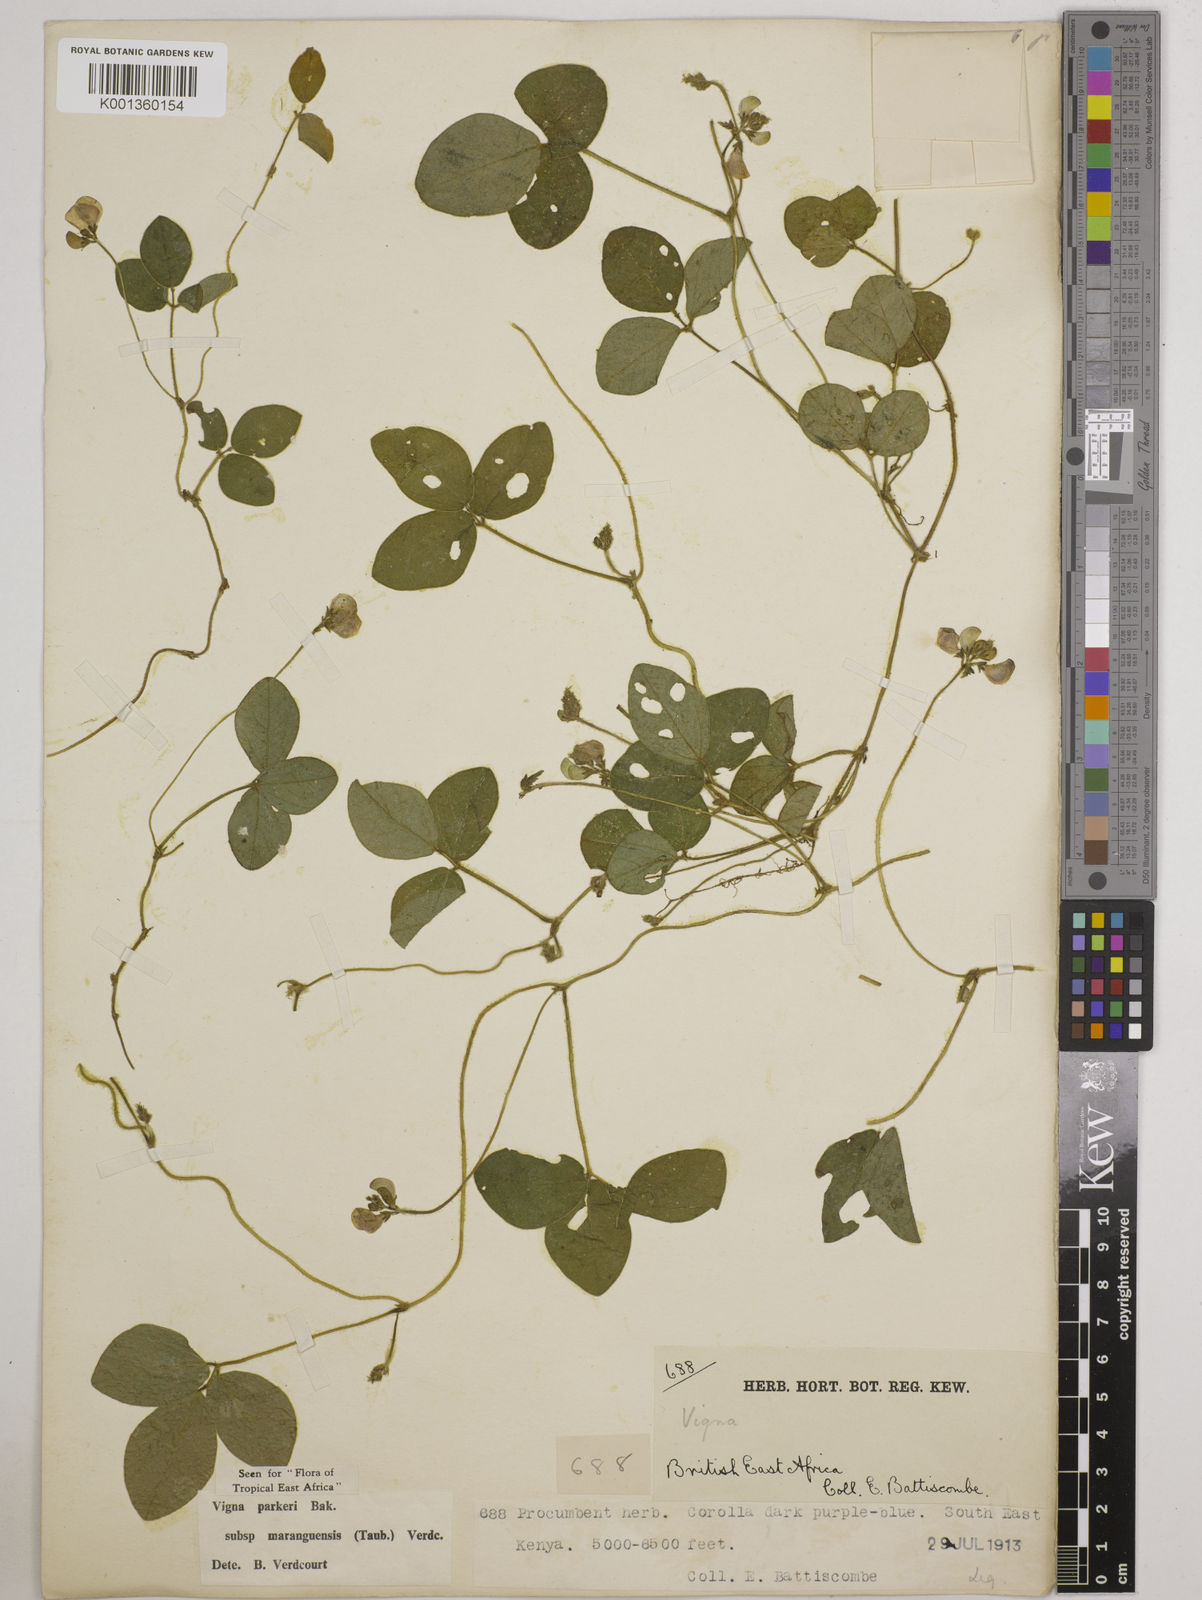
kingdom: Plantae
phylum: Tracheophyta
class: Magnoliopsida
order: Fabales
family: Fabaceae
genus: Vigna
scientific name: Vigna
